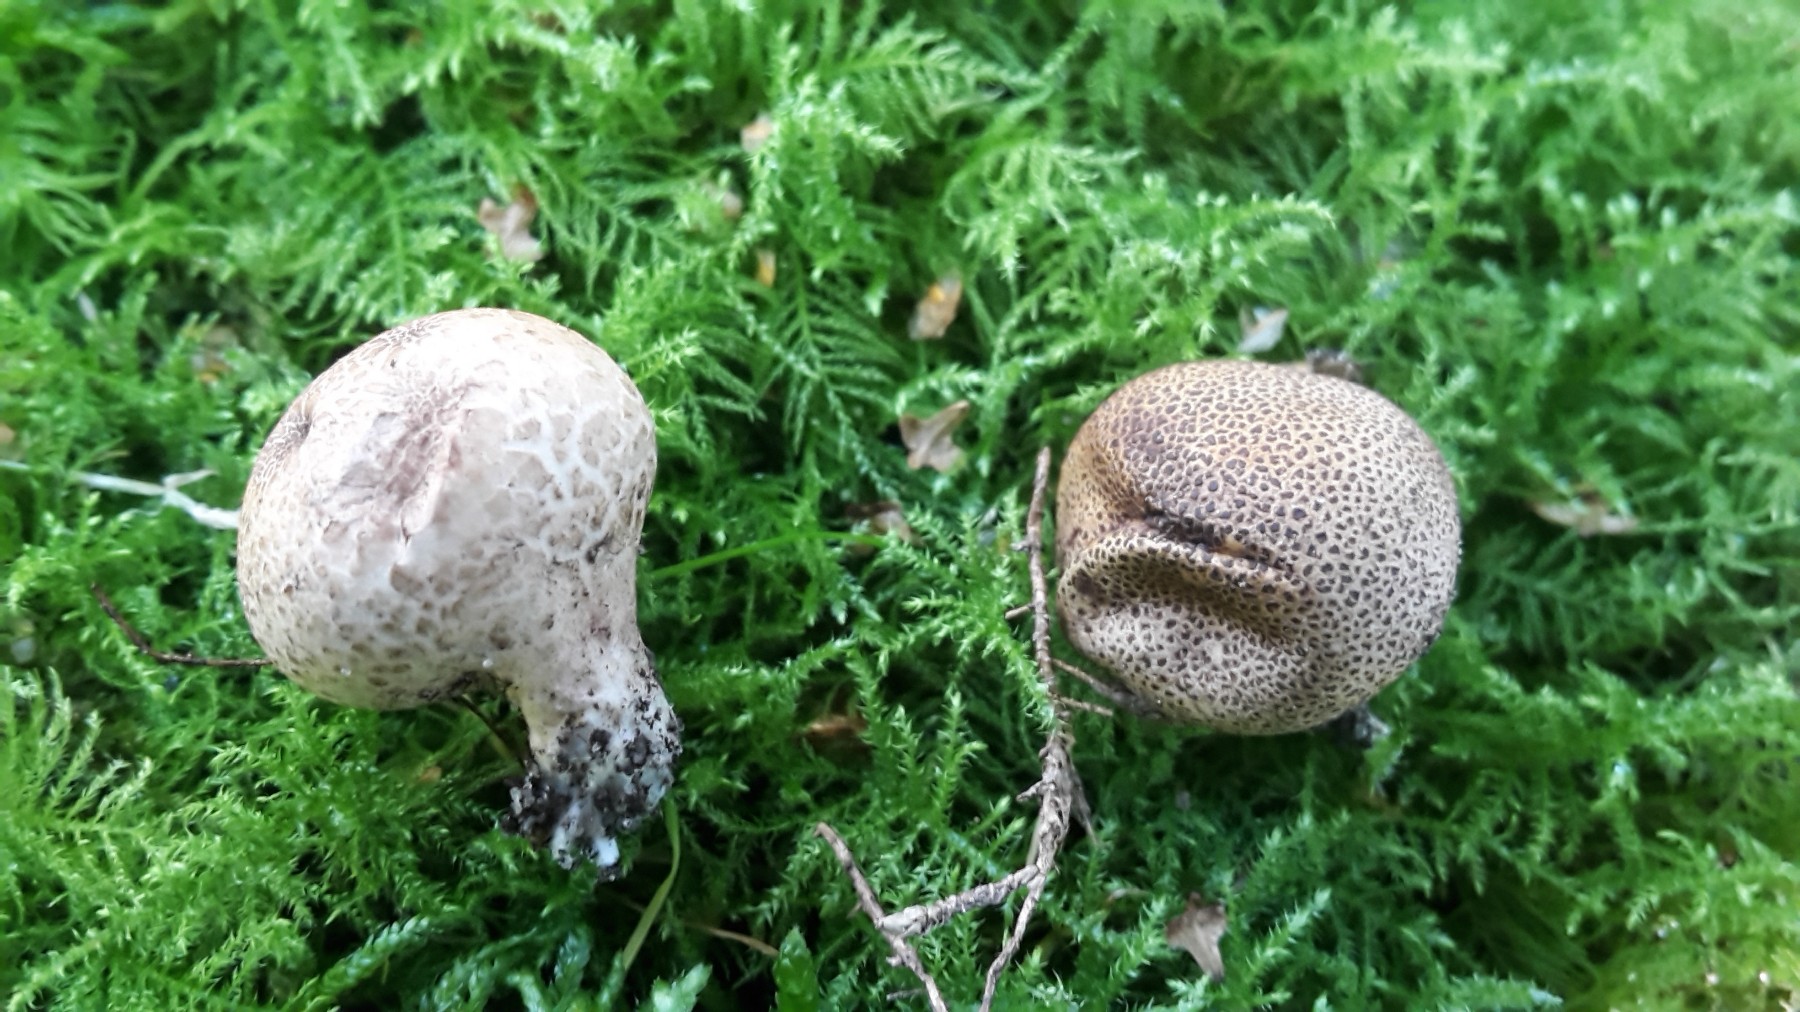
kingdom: Fungi
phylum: Basidiomycota
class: Agaricomycetes
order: Boletales
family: Sclerodermataceae
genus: Scleroderma
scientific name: Scleroderma areolatum
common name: plettet bruskbold
